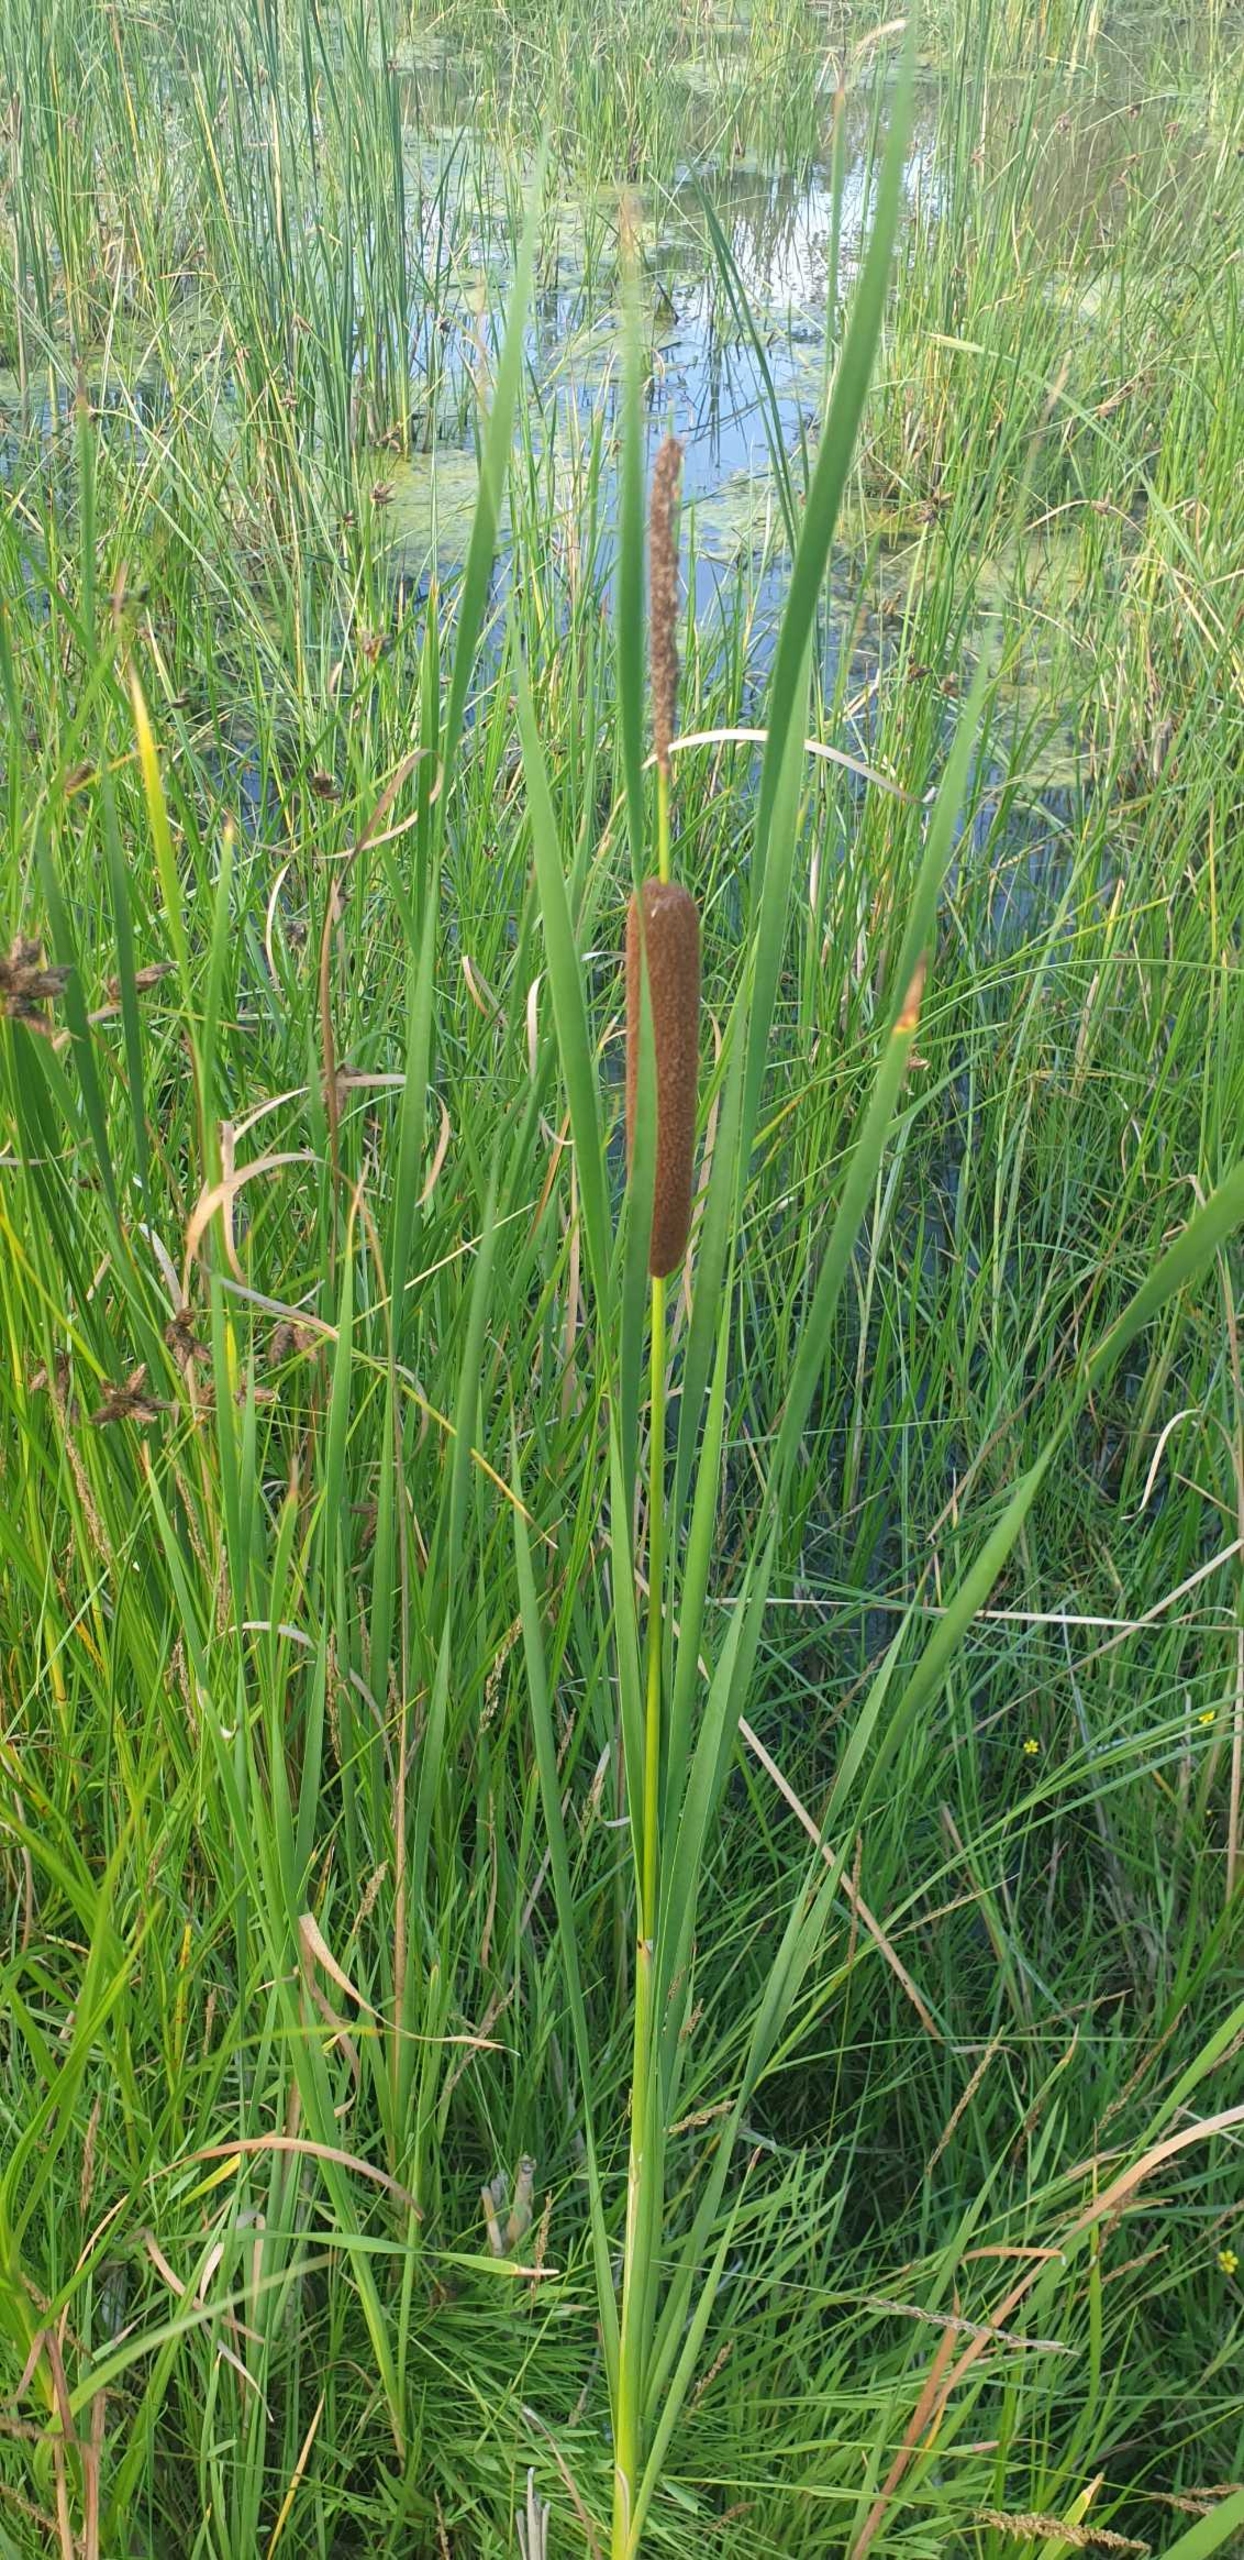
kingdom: Plantae
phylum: Tracheophyta
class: Liliopsida
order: Poales
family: Typhaceae
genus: Typha
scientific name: Typha angustifolia
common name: Smalbladet dunhammer
